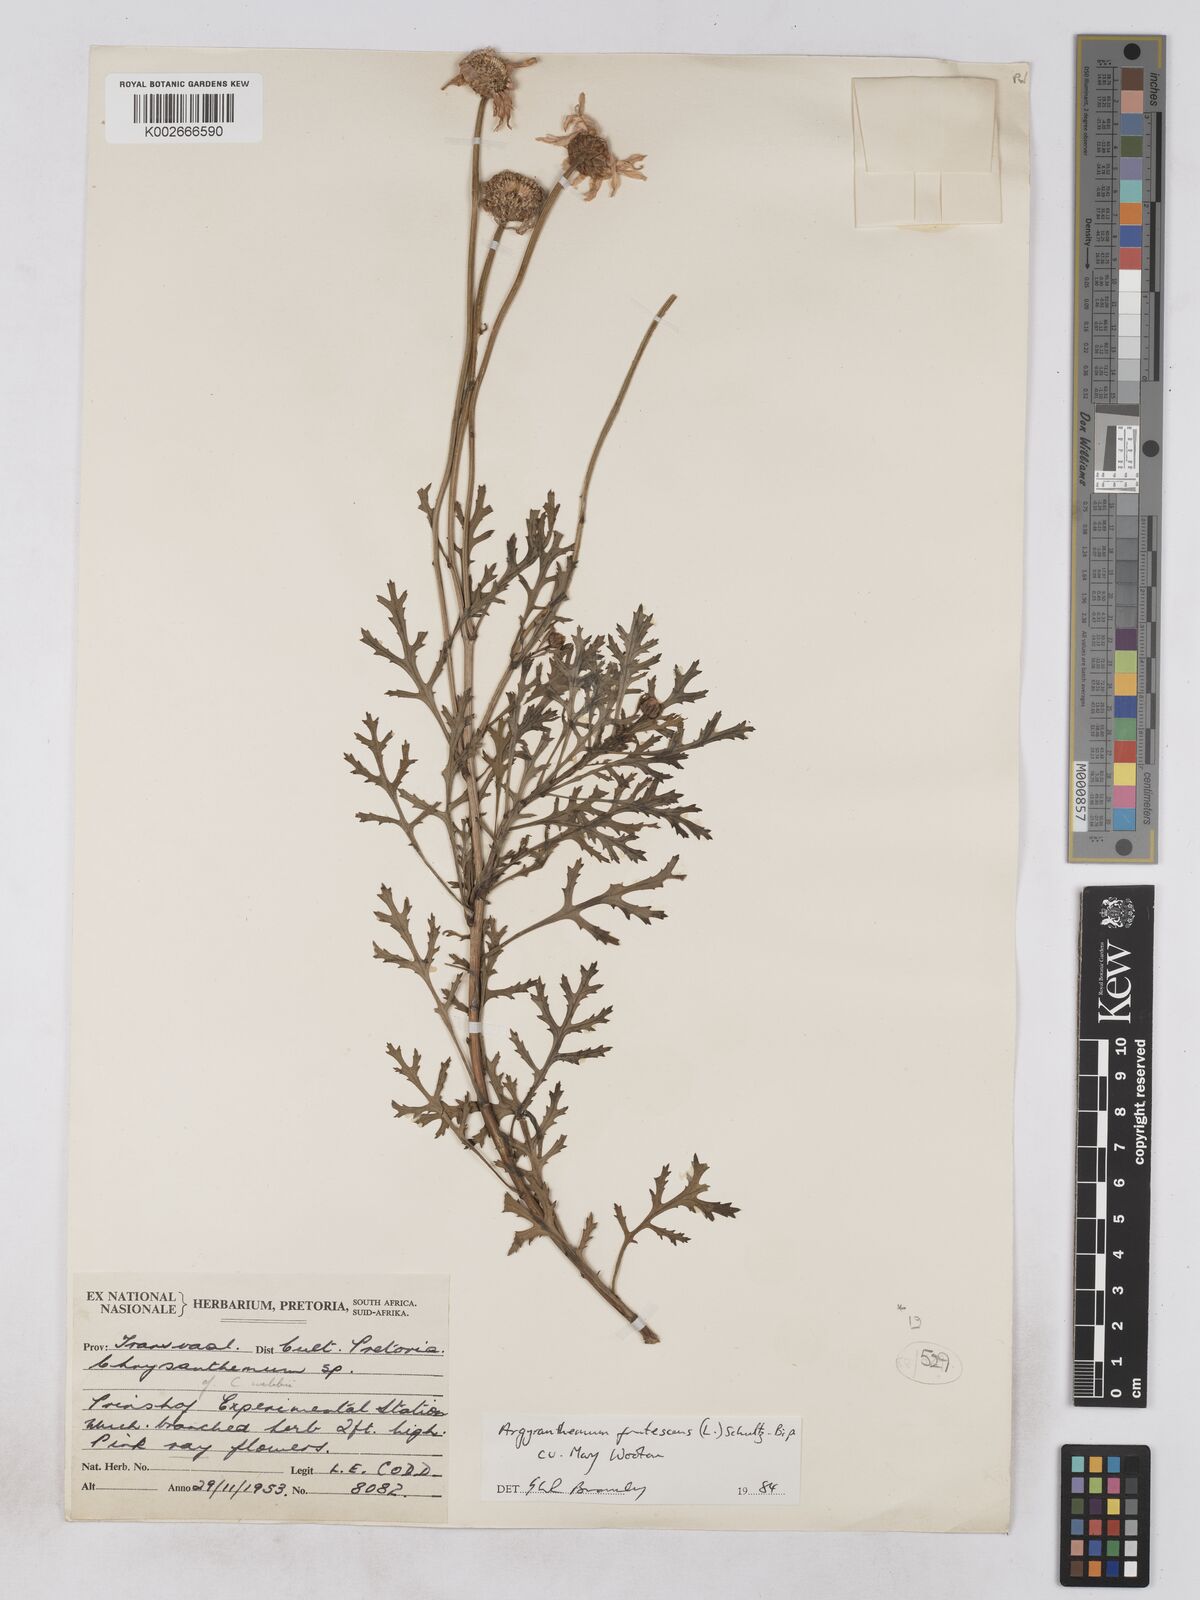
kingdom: Plantae
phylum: Tracheophyta
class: Magnoliopsida
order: Asterales
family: Asteraceae
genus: Argyranthemum
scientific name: Argyranthemum frutescens
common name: Paris daisy
